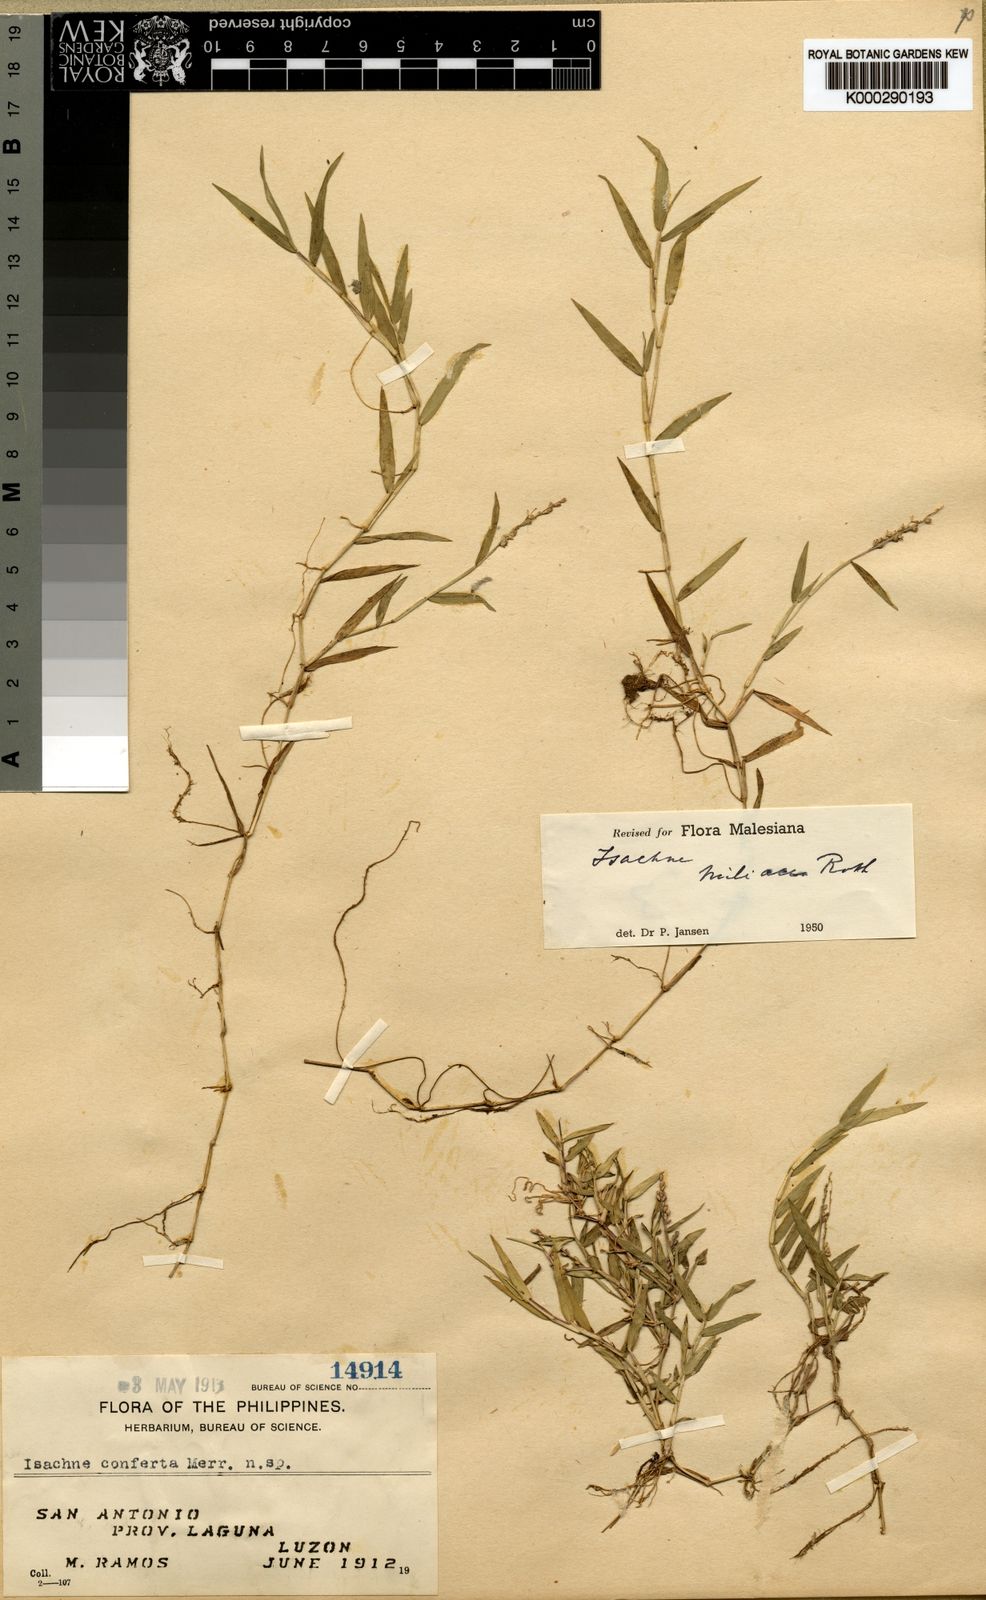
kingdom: Plantae
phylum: Tracheophyta
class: Liliopsida
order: Poales
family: Poaceae
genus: Isachne
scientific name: Isachne minutula
